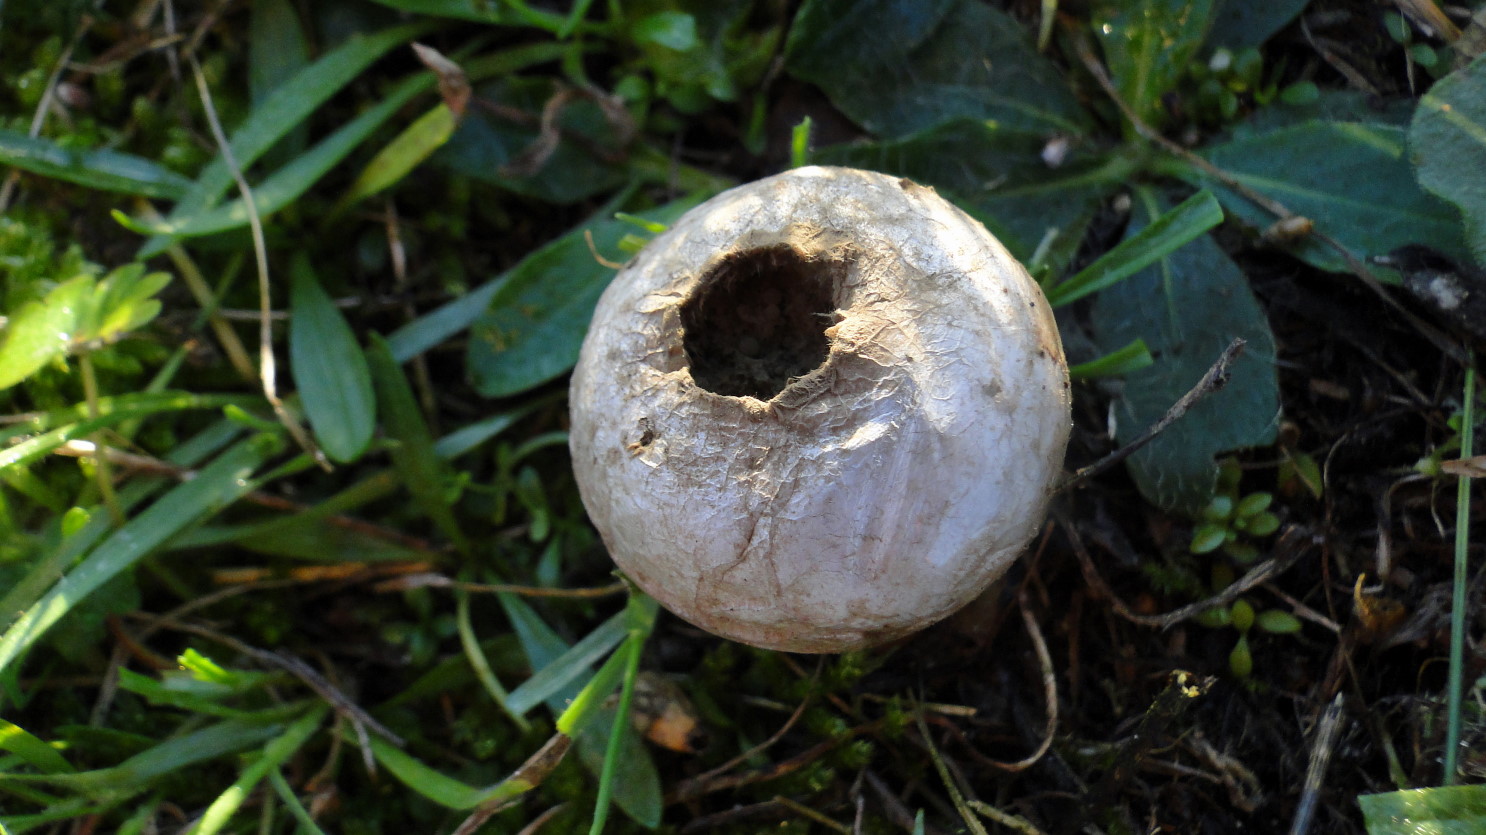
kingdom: Fungi
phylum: Basidiomycota
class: Agaricomycetes
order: Agaricales
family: Lycoperdaceae
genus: Lycoperdon
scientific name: Lycoperdon lividum
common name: mark-støvbold
